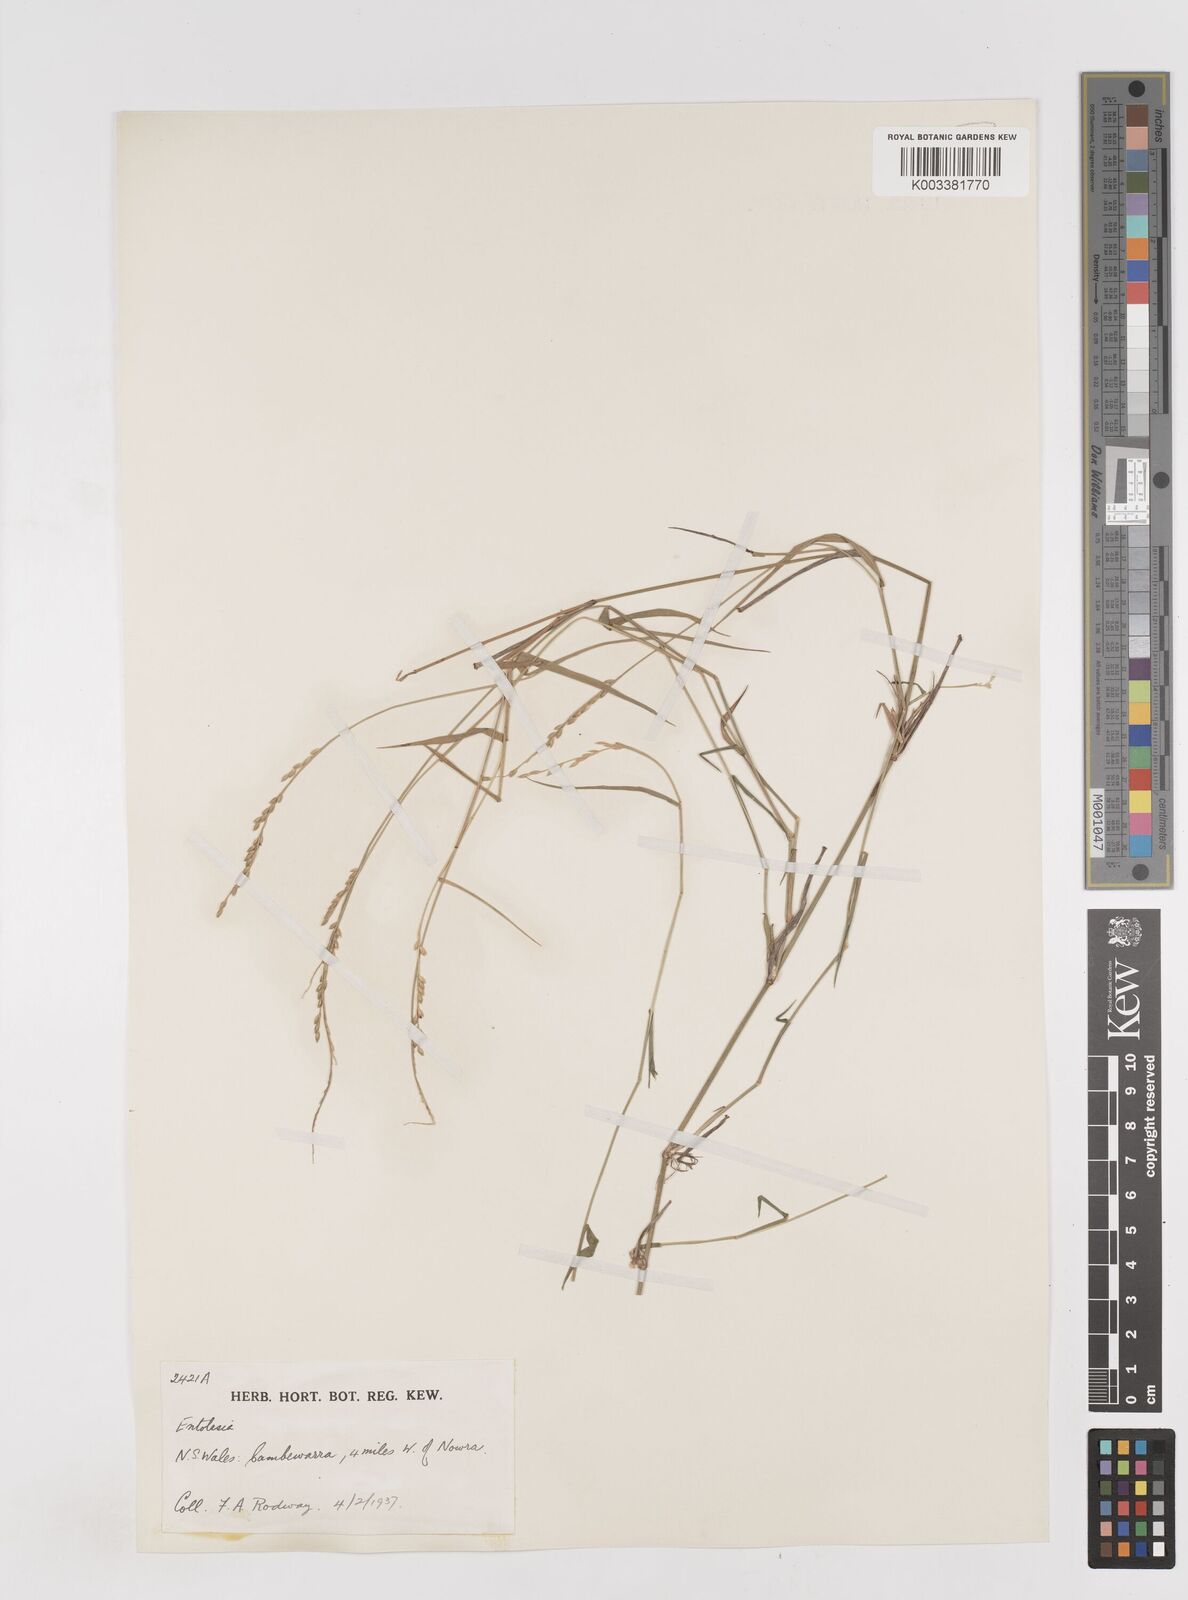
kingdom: Plantae
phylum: Tracheophyta
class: Liliopsida
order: Poales
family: Poaceae
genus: Entolasia
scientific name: Entolasia stricta
